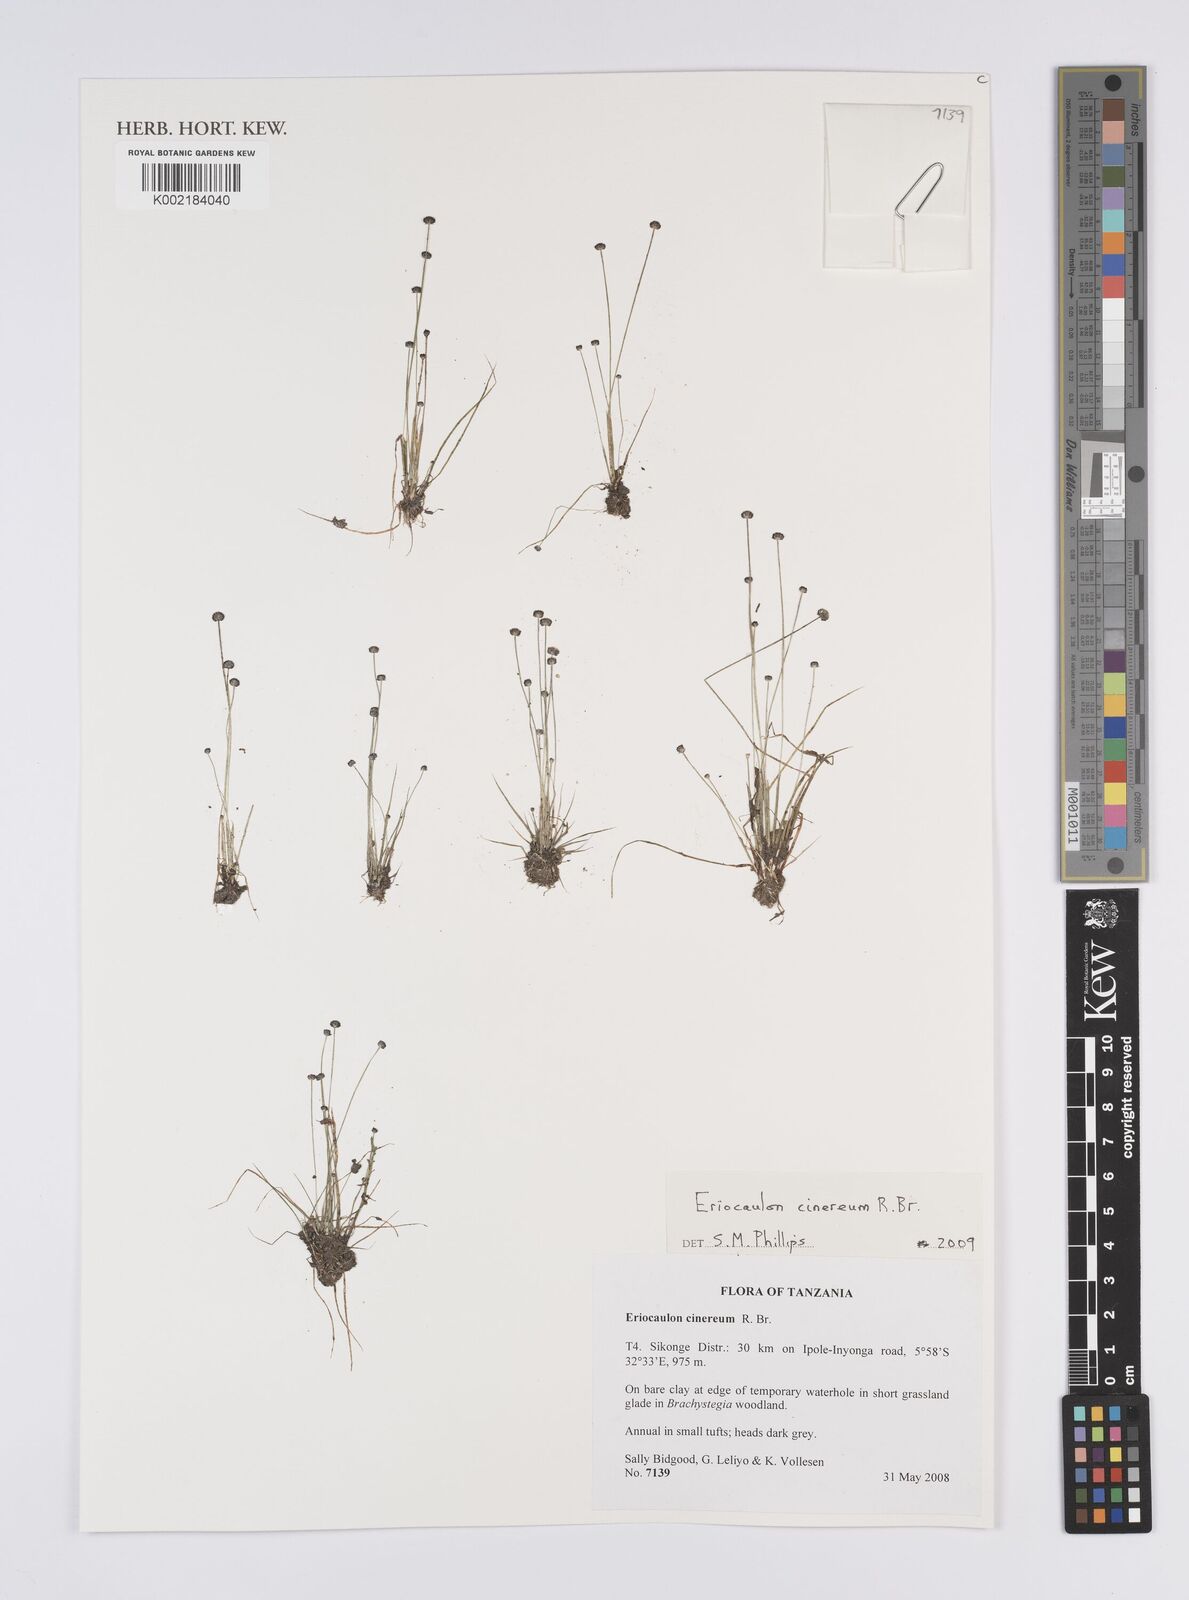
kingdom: Plantae
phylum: Tracheophyta
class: Liliopsida
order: Poales
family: Eriocaulaceae
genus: Eriocaulon
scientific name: Eriocaulon cinereum
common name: Ashy pipewort
